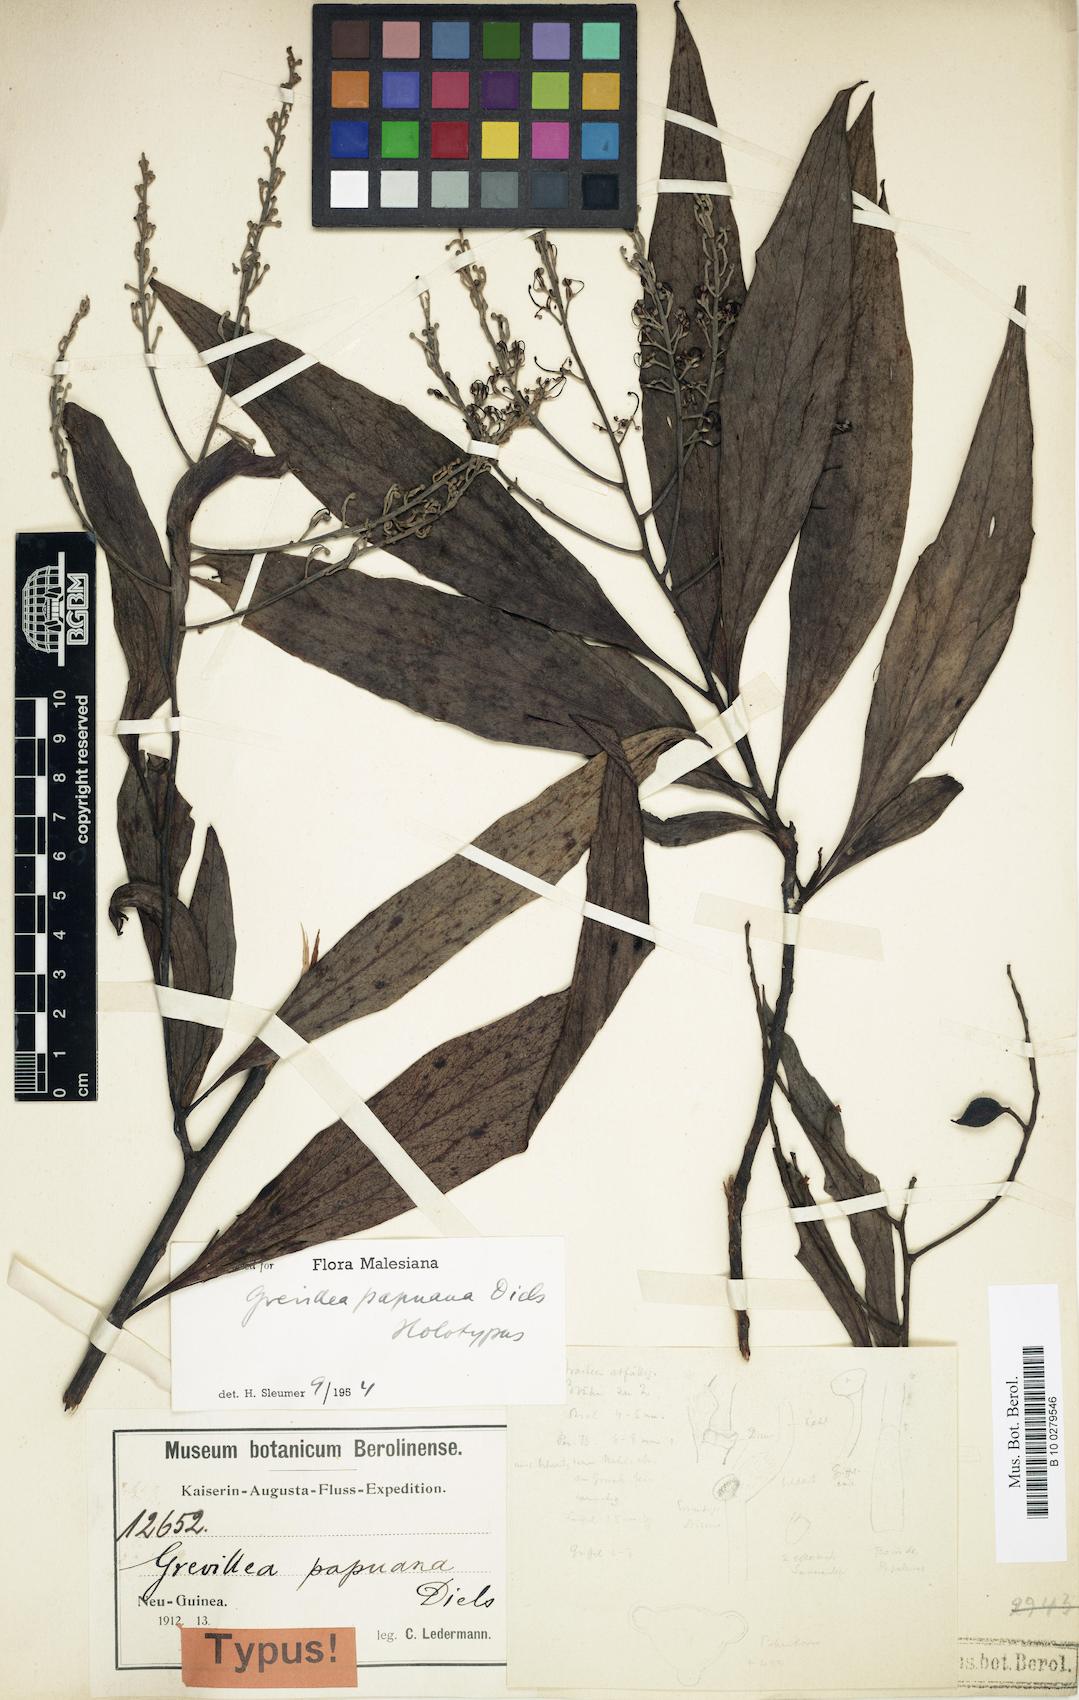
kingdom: Plantae
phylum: Tracheophyta
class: Magnoliopsida
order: Proteales
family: Proteaceae
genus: Grevillea
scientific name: Grevillea papuana
